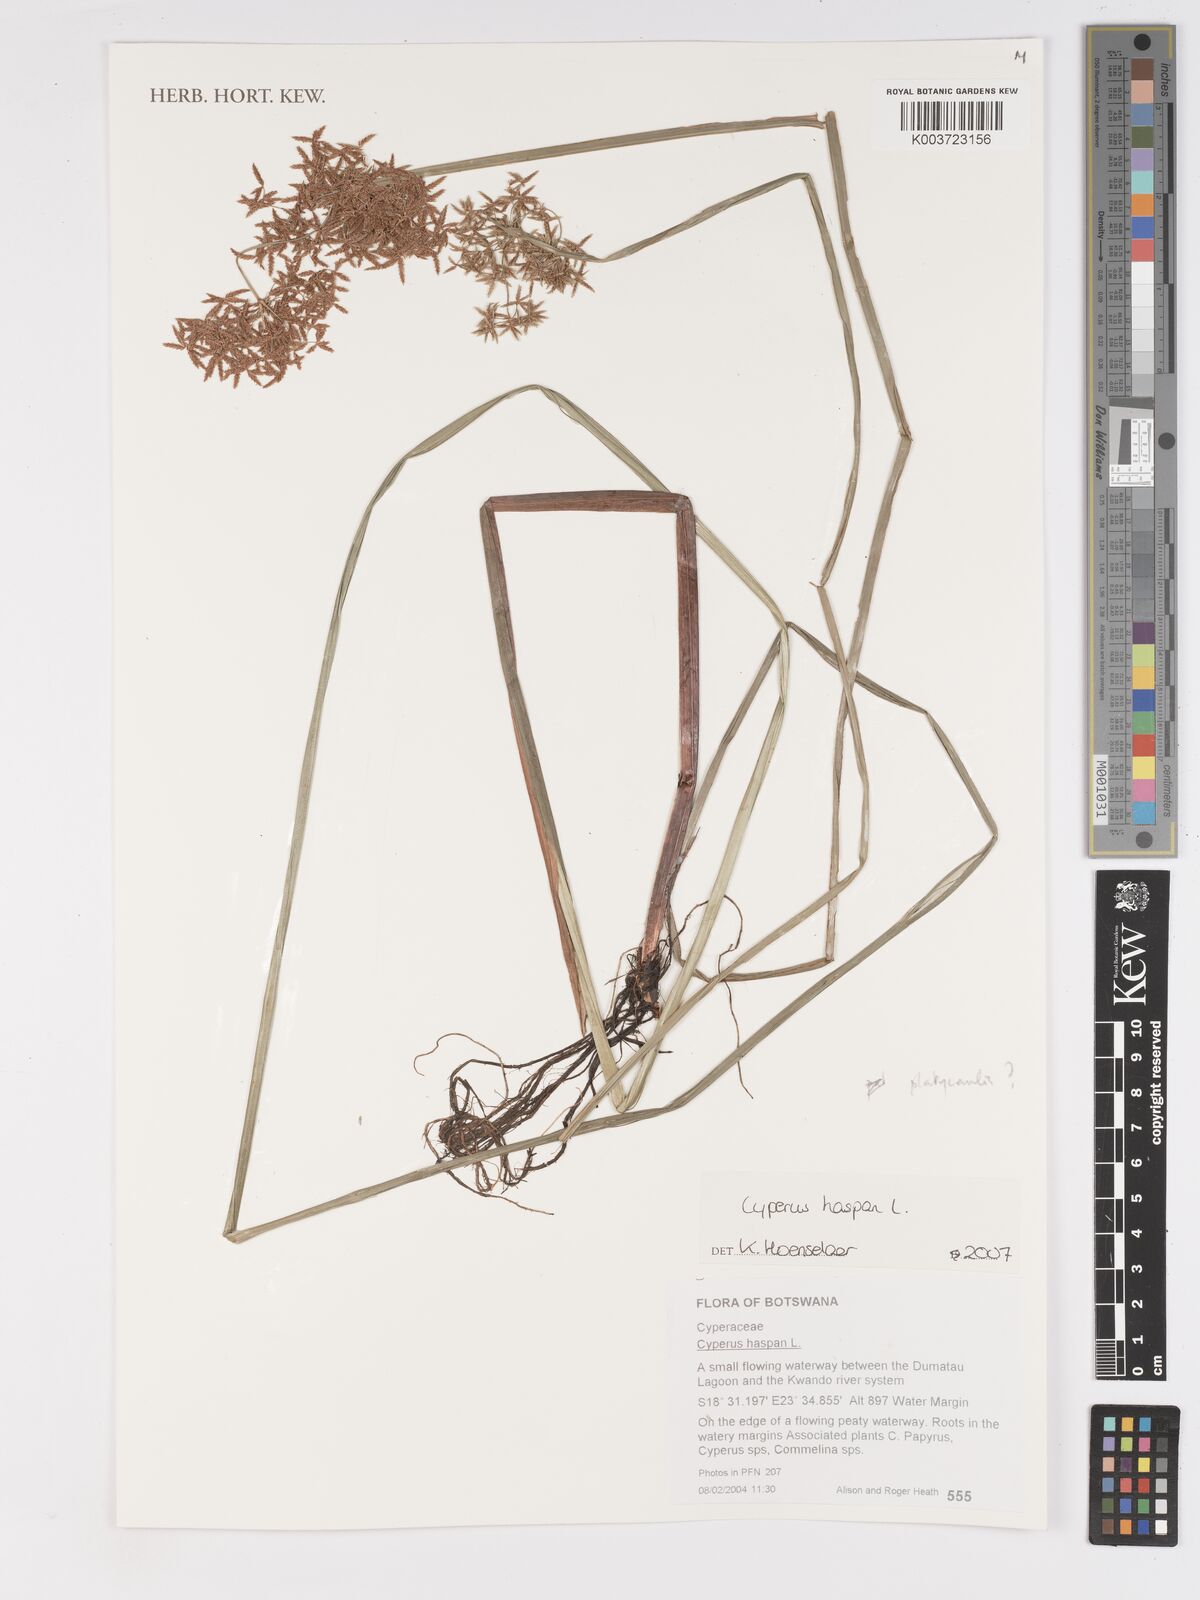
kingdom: Plantae
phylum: Tracheophyta
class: Liliopsida
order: Poales
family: Cyperaceae
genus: Cyperus
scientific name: Cyperus haspan
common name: Haspan flatsedge
